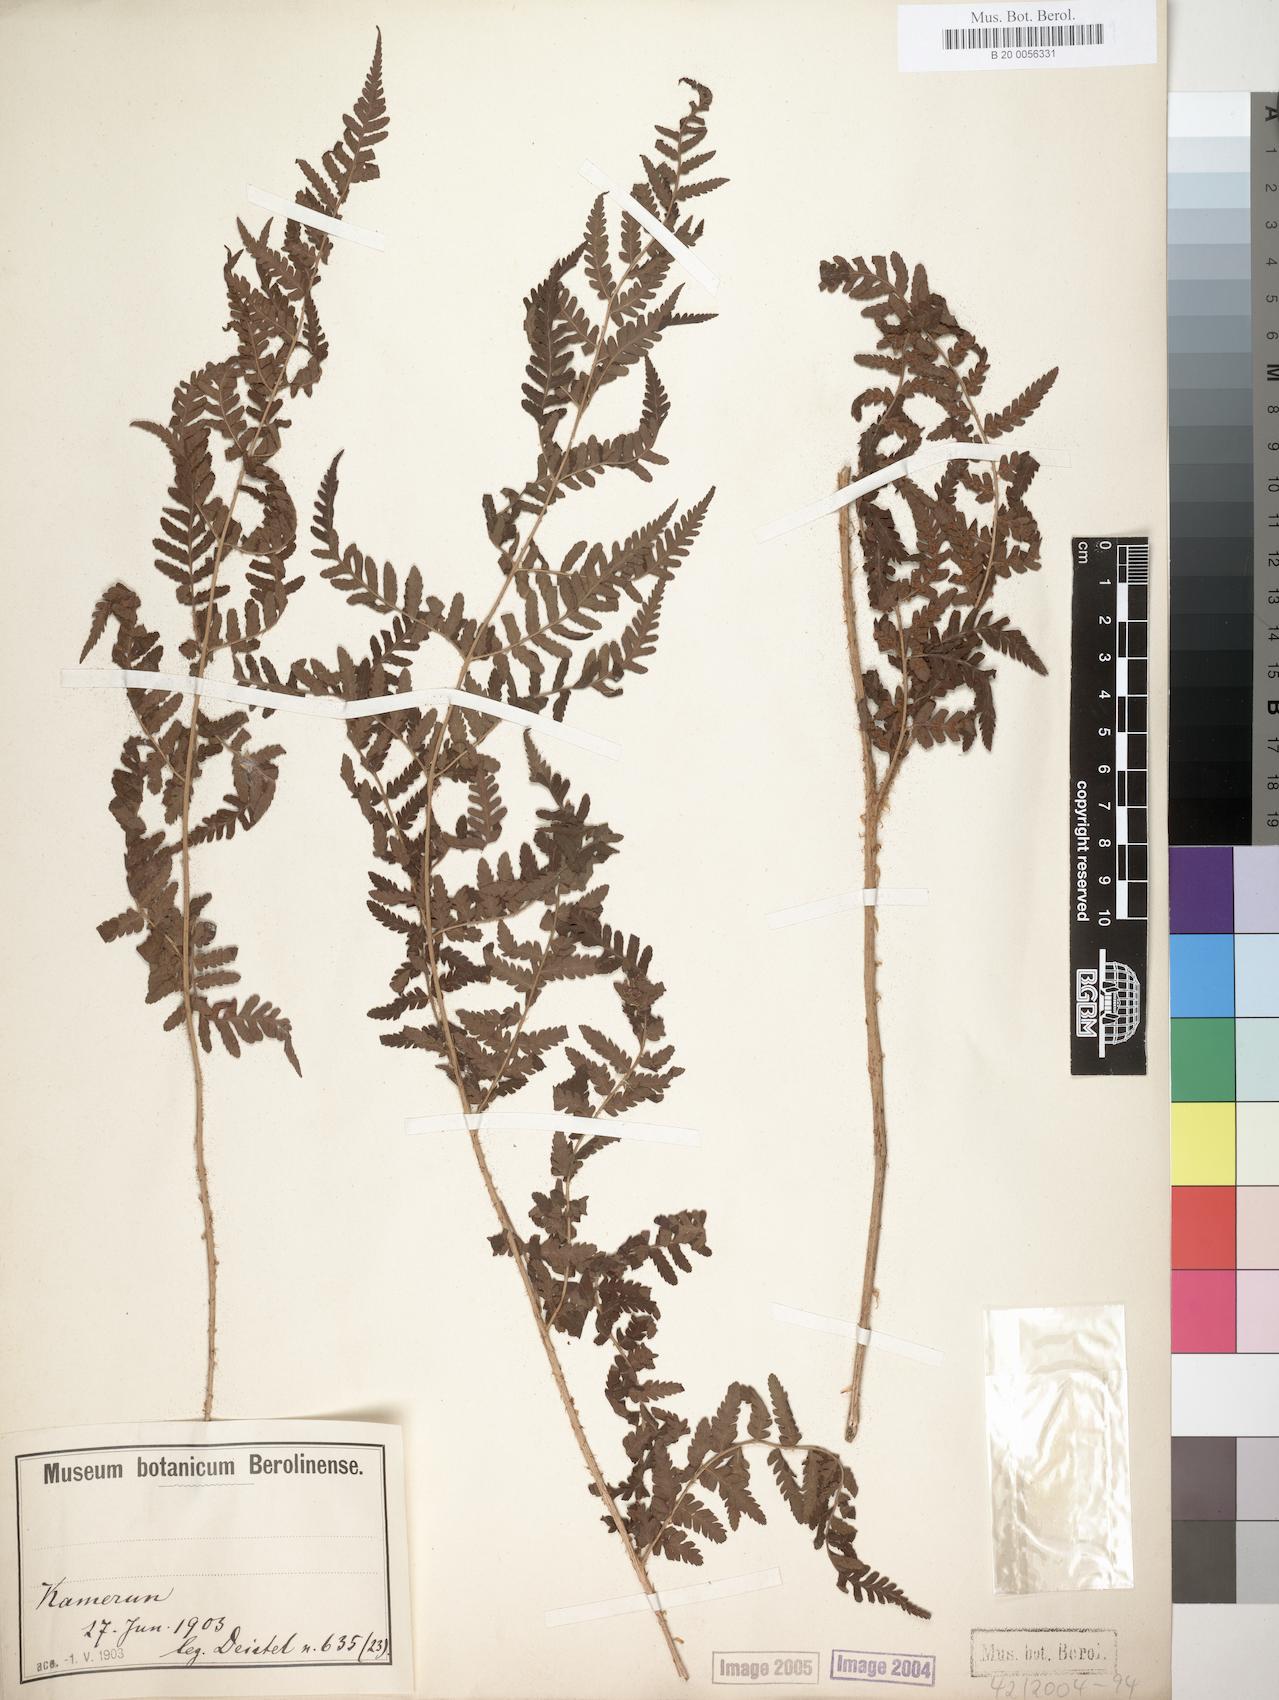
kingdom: Plantae
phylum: Tracheophyta
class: Polypodiopsida
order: Polypodiales
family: Dryopteridaceae
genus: Dryopteris
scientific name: Dryopteris filix-mas
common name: Male fern
